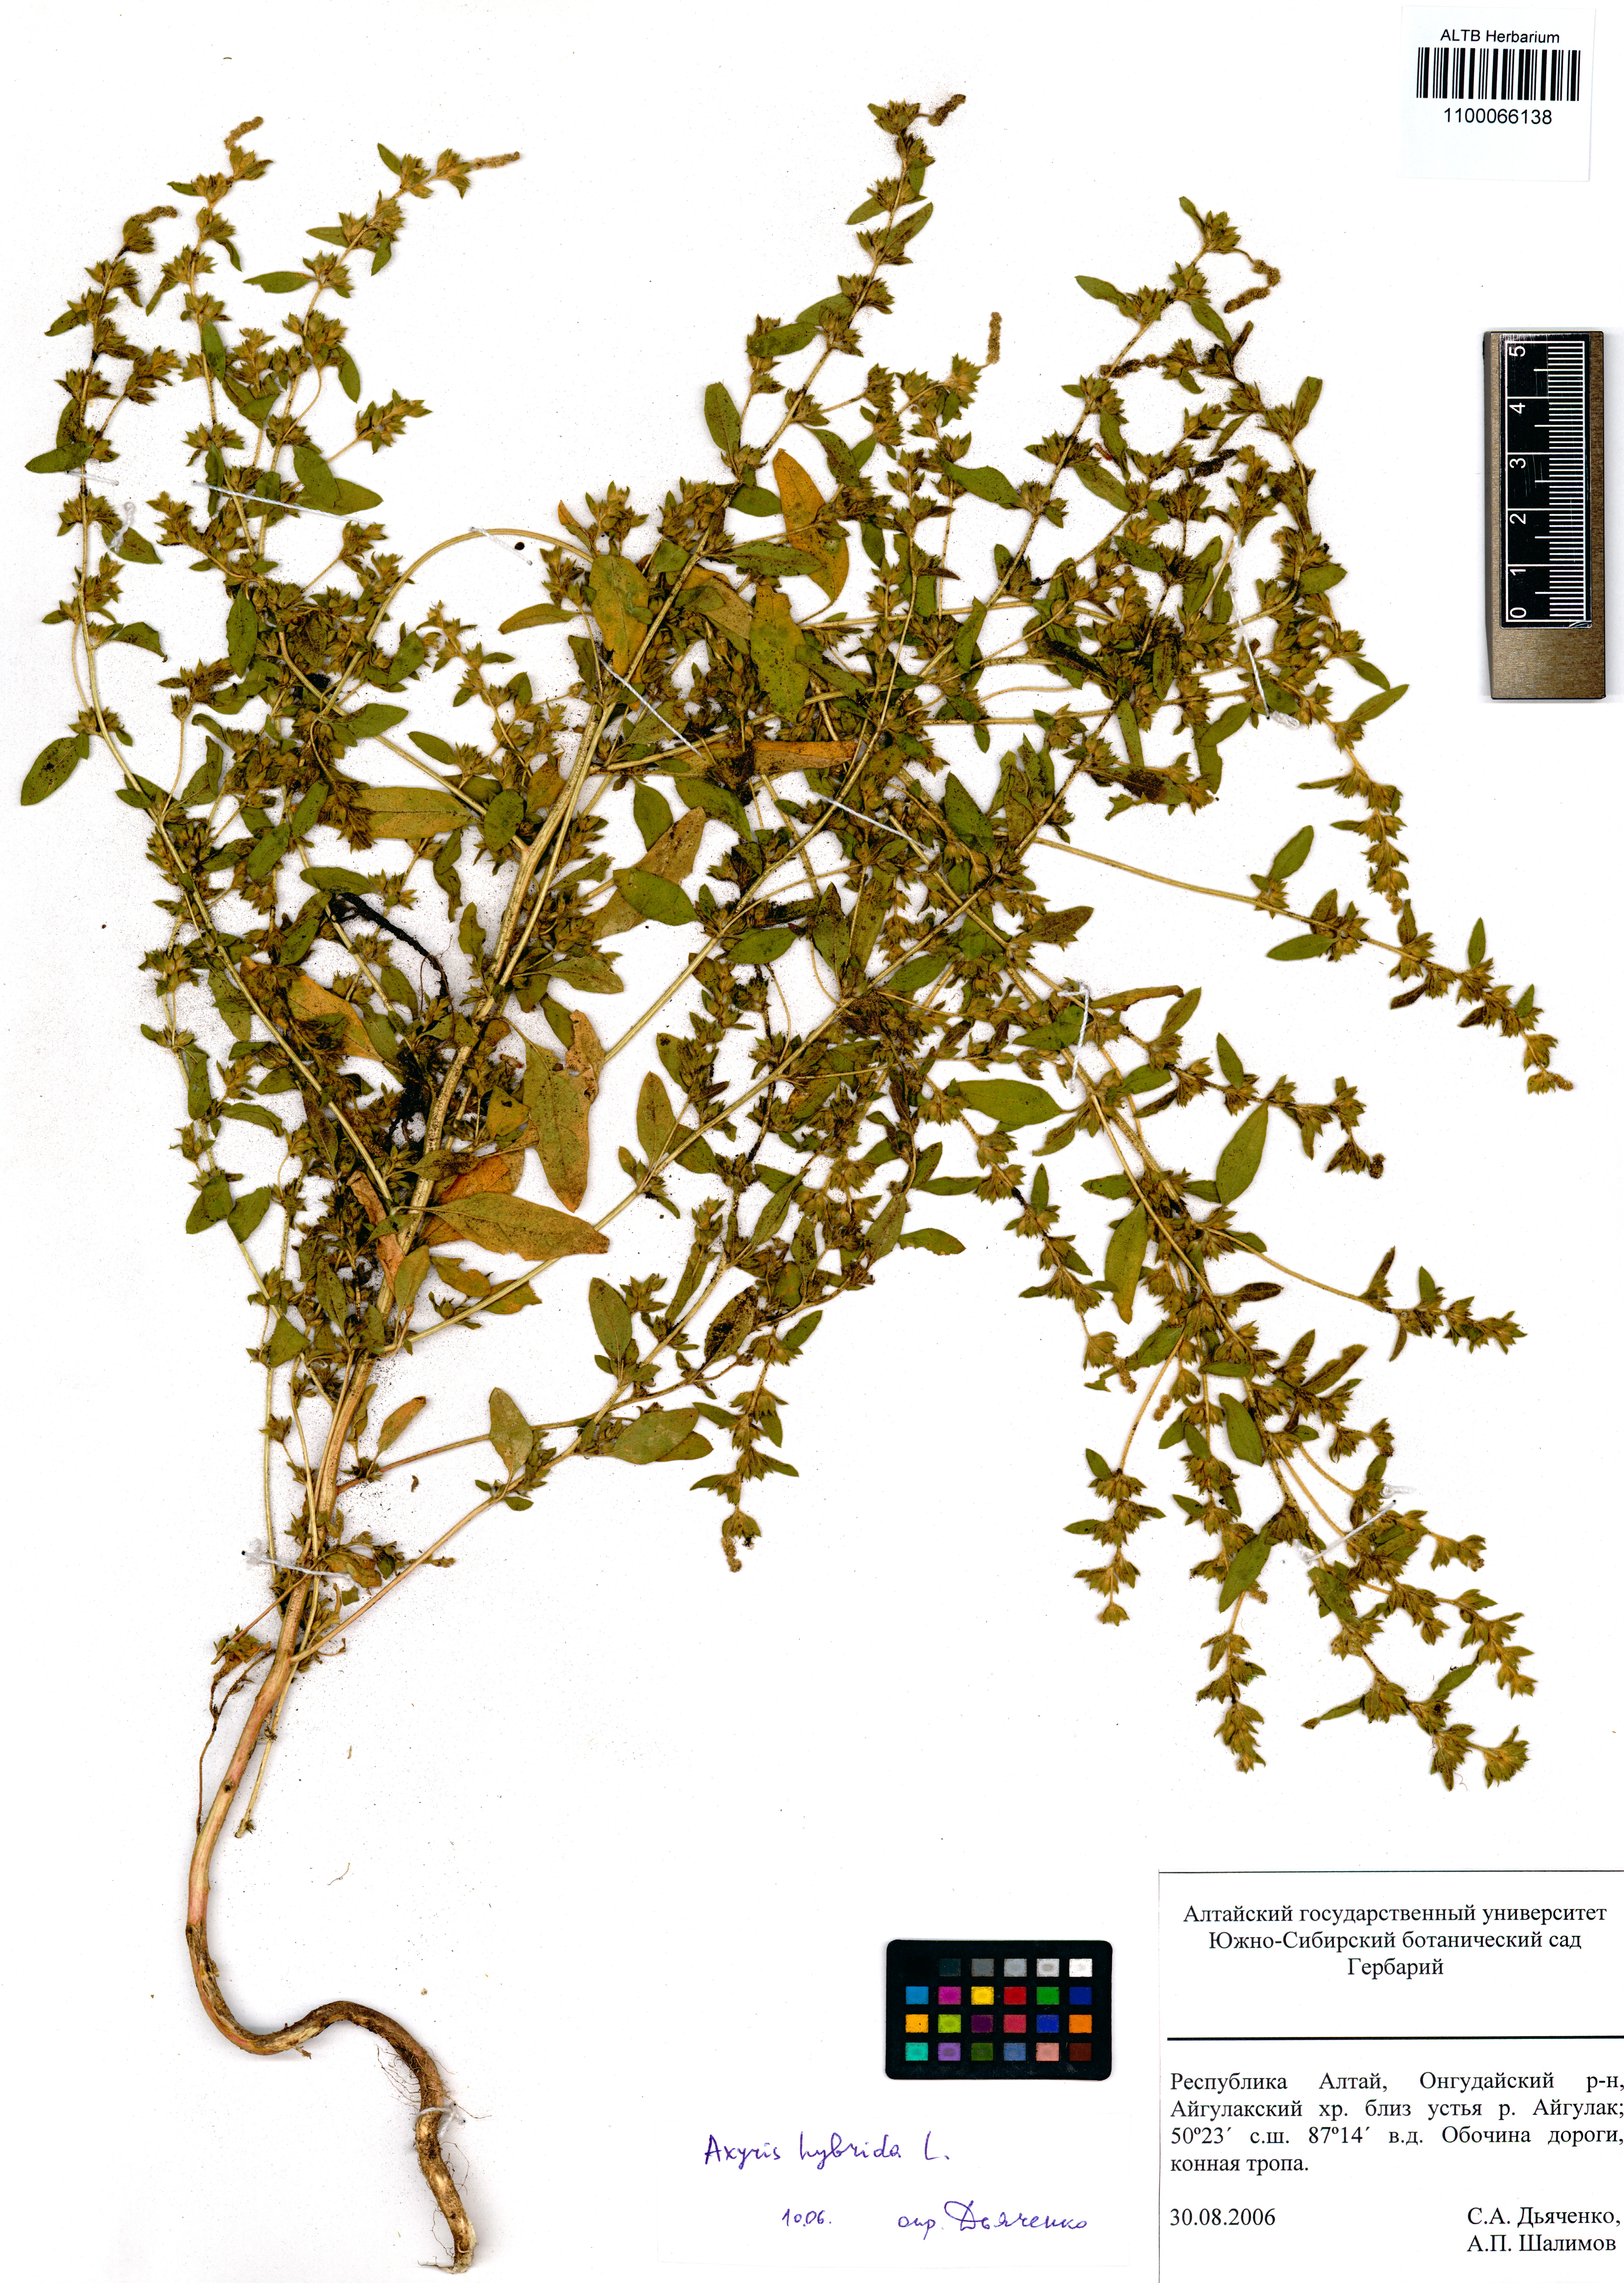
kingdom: Plantae
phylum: Tracheophyta
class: Magnoliopsida
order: Caryophyllales
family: Amaranthaceae
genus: Axyris
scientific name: Axyris hybrida
